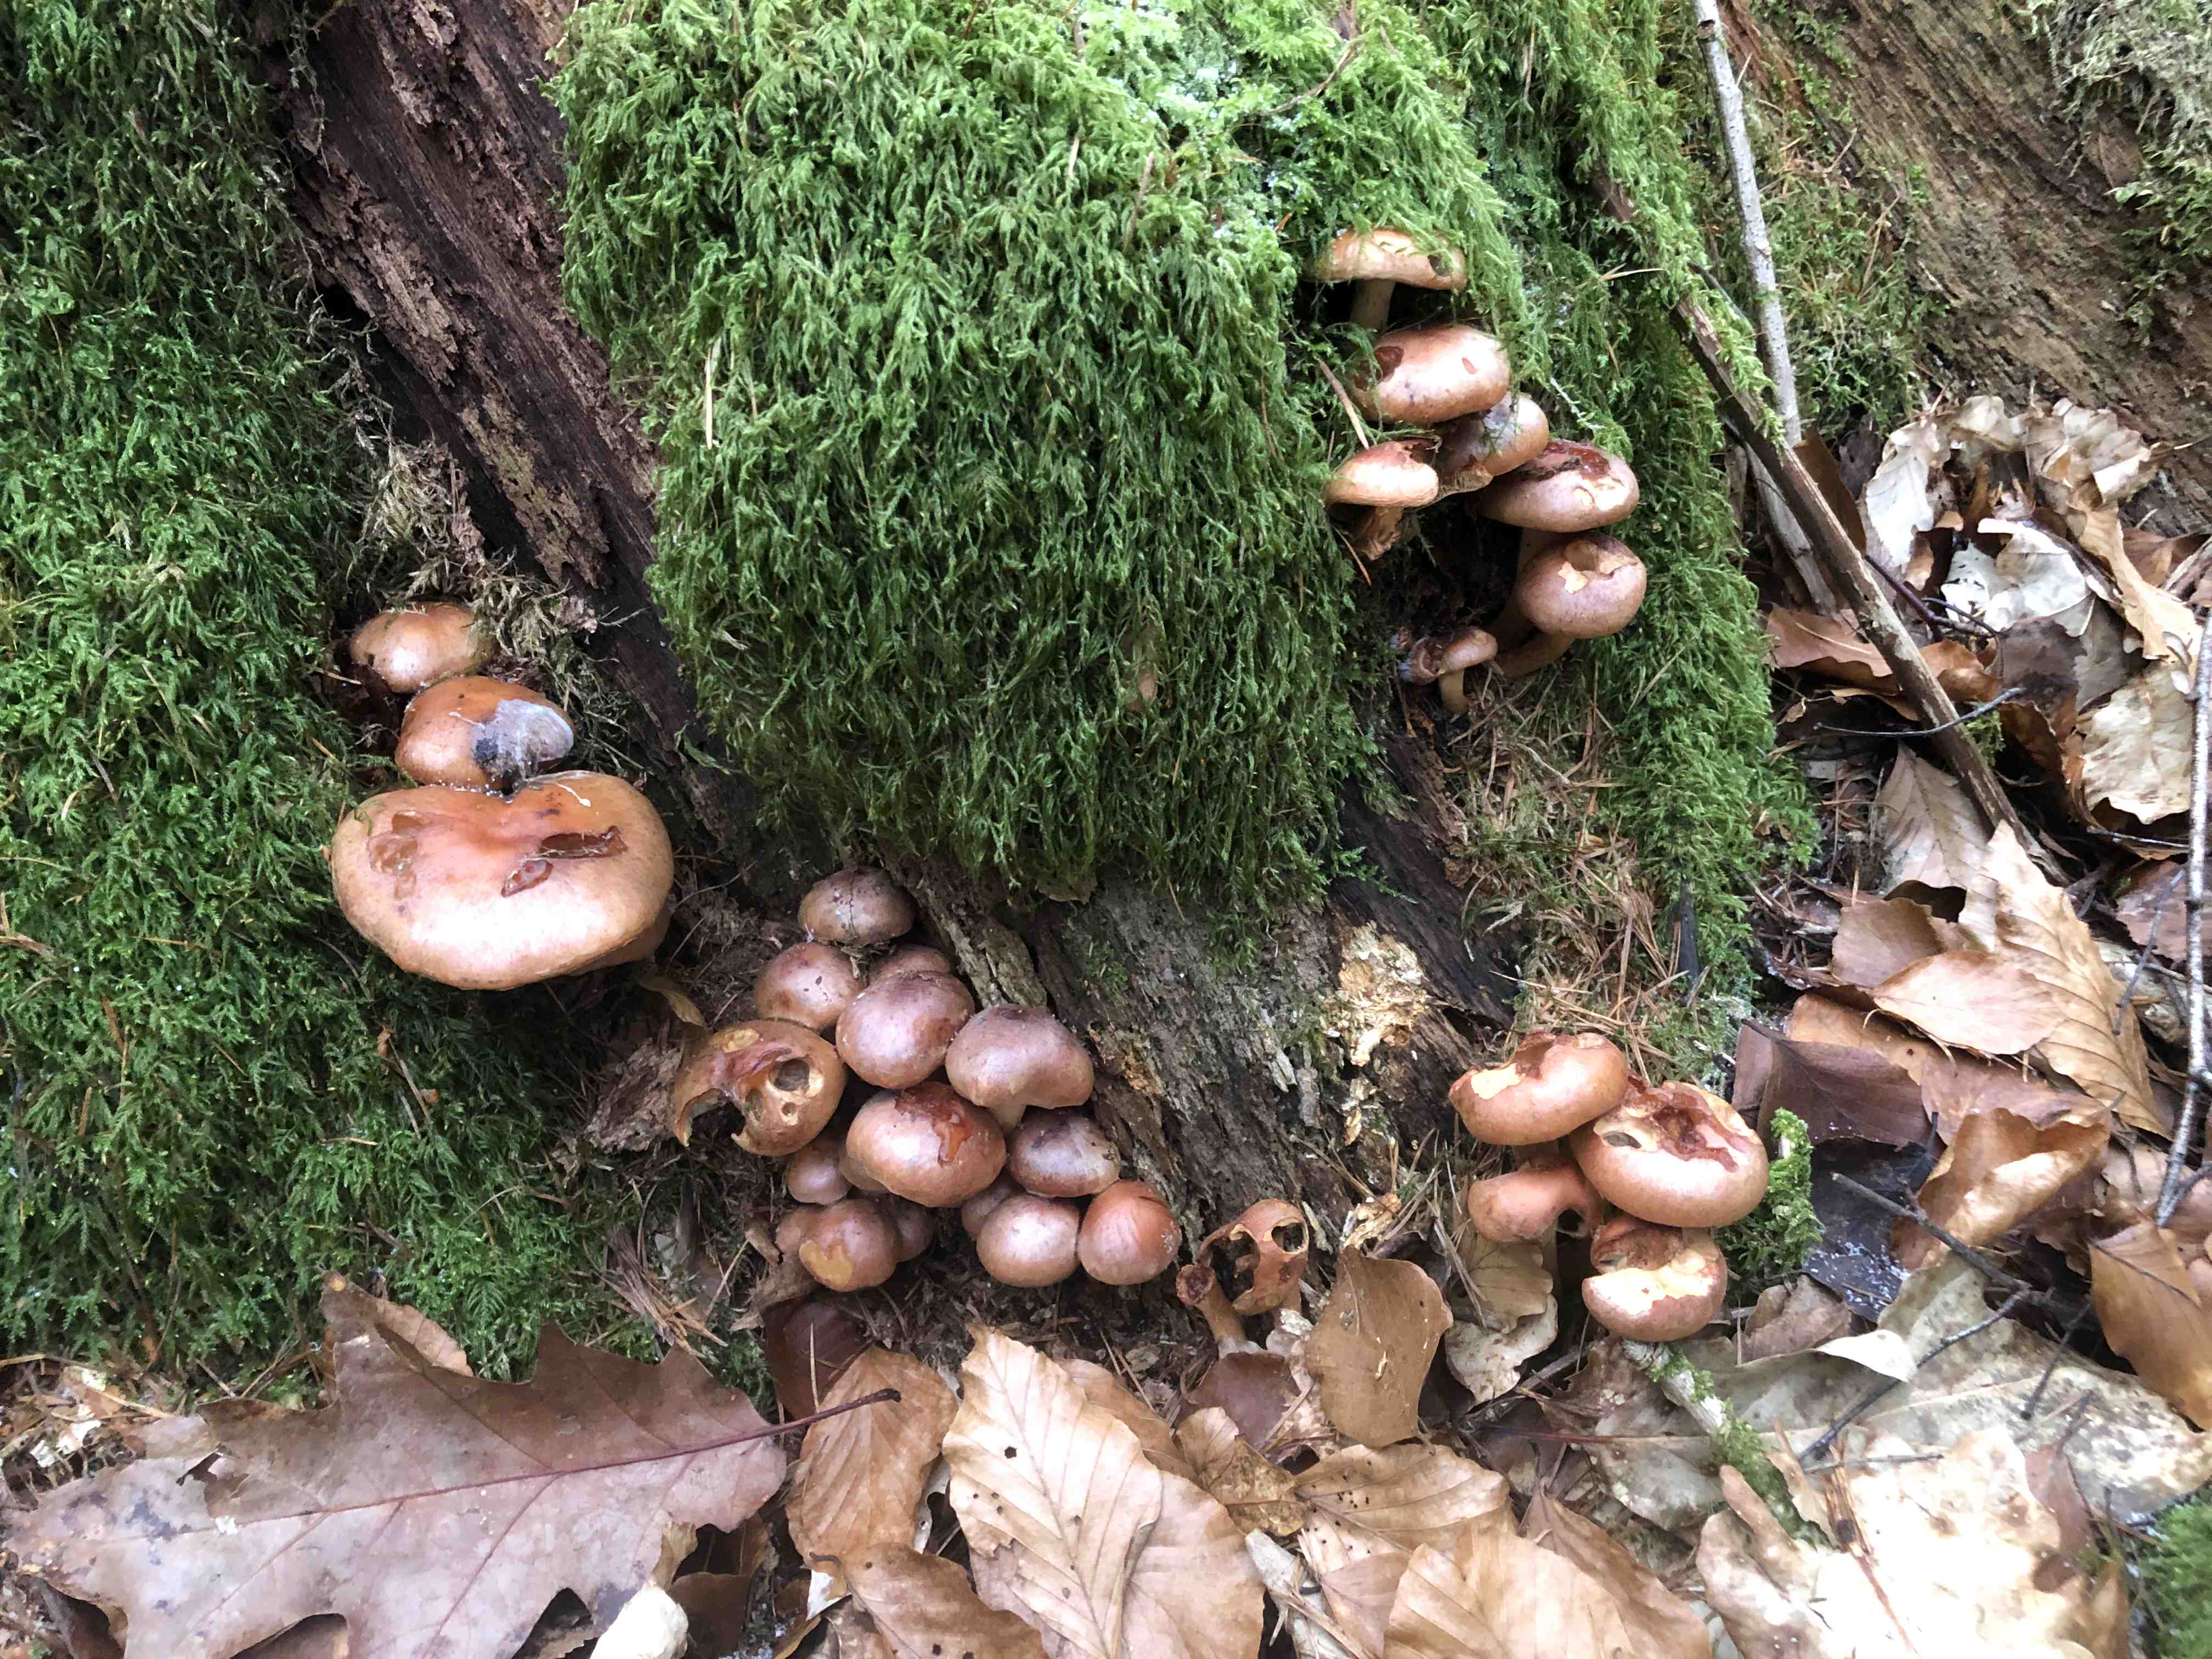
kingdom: Fungi
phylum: Basidiomycota
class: Agaricomycetes
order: Agaricales
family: Strophariaceae
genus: Hypholoma
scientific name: Hypholoma lateritium
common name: teglrød svovlhat
